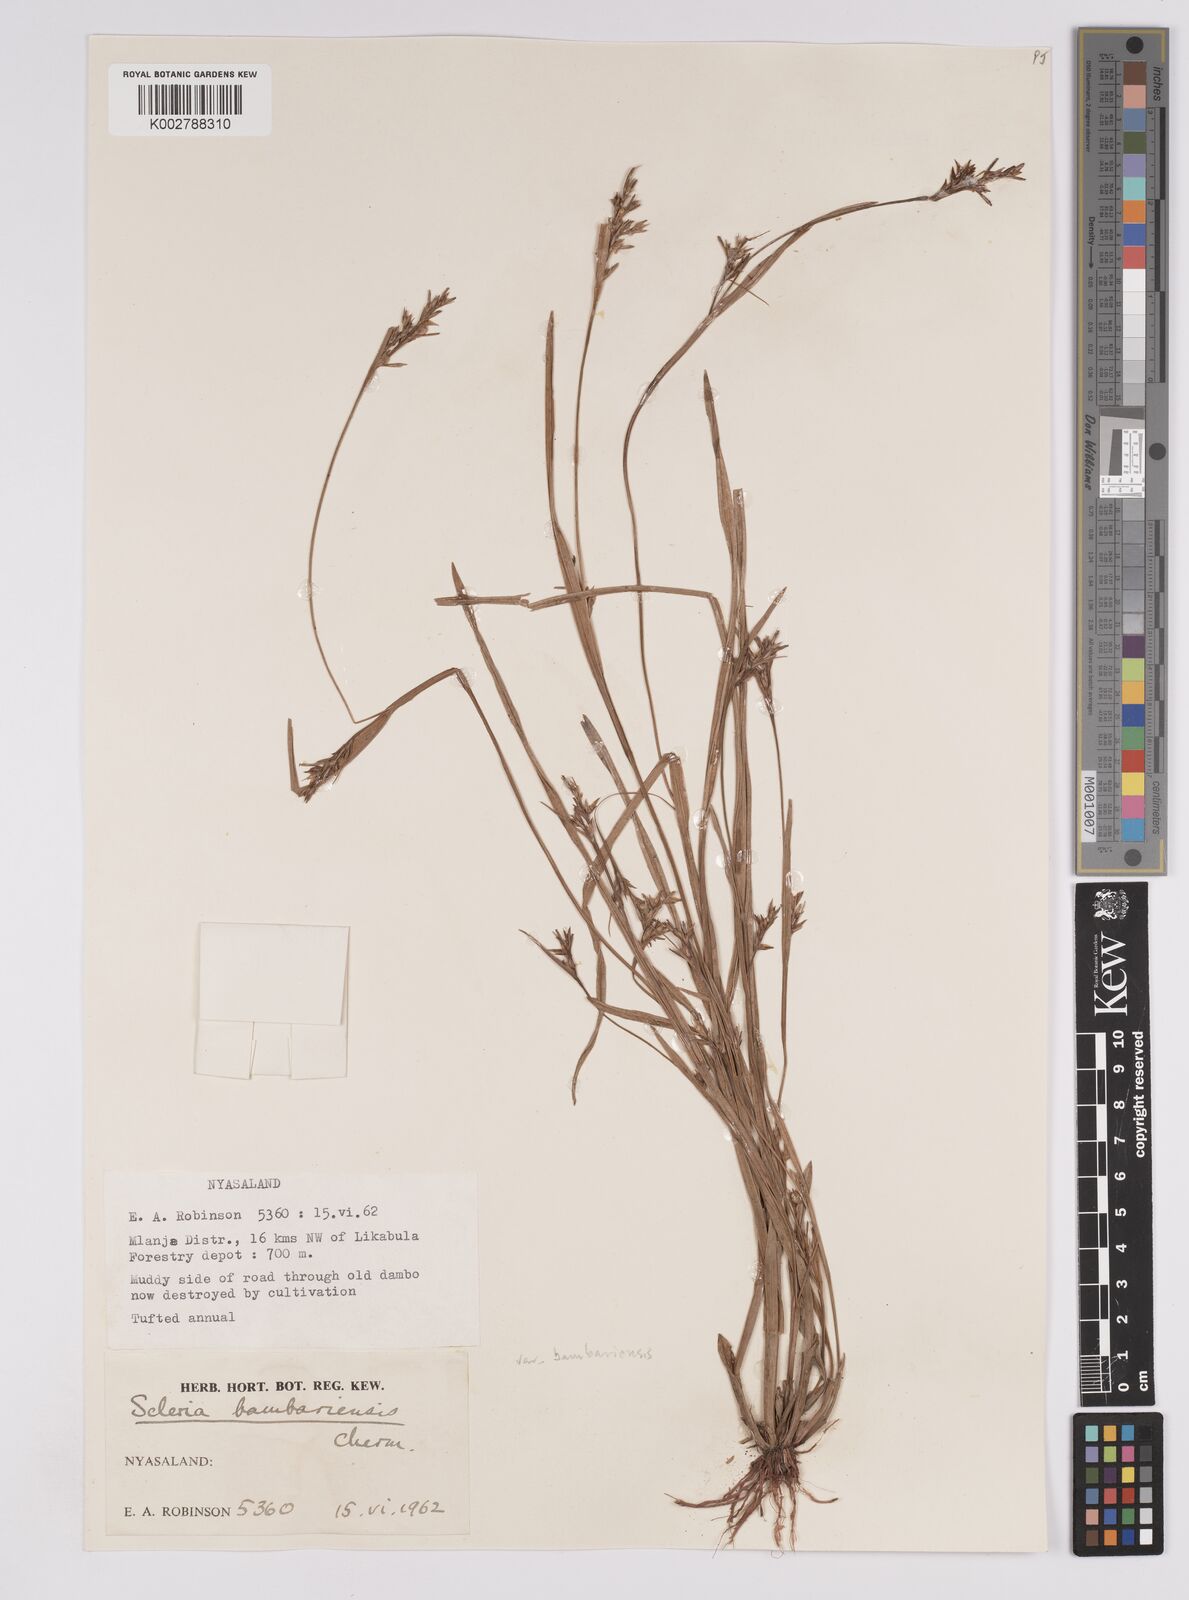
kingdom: Plantae
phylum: Tracheophyta
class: Liliopsida
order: Poales
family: Cyperaceae
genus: Scleria
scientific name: Scleria bambariensis
